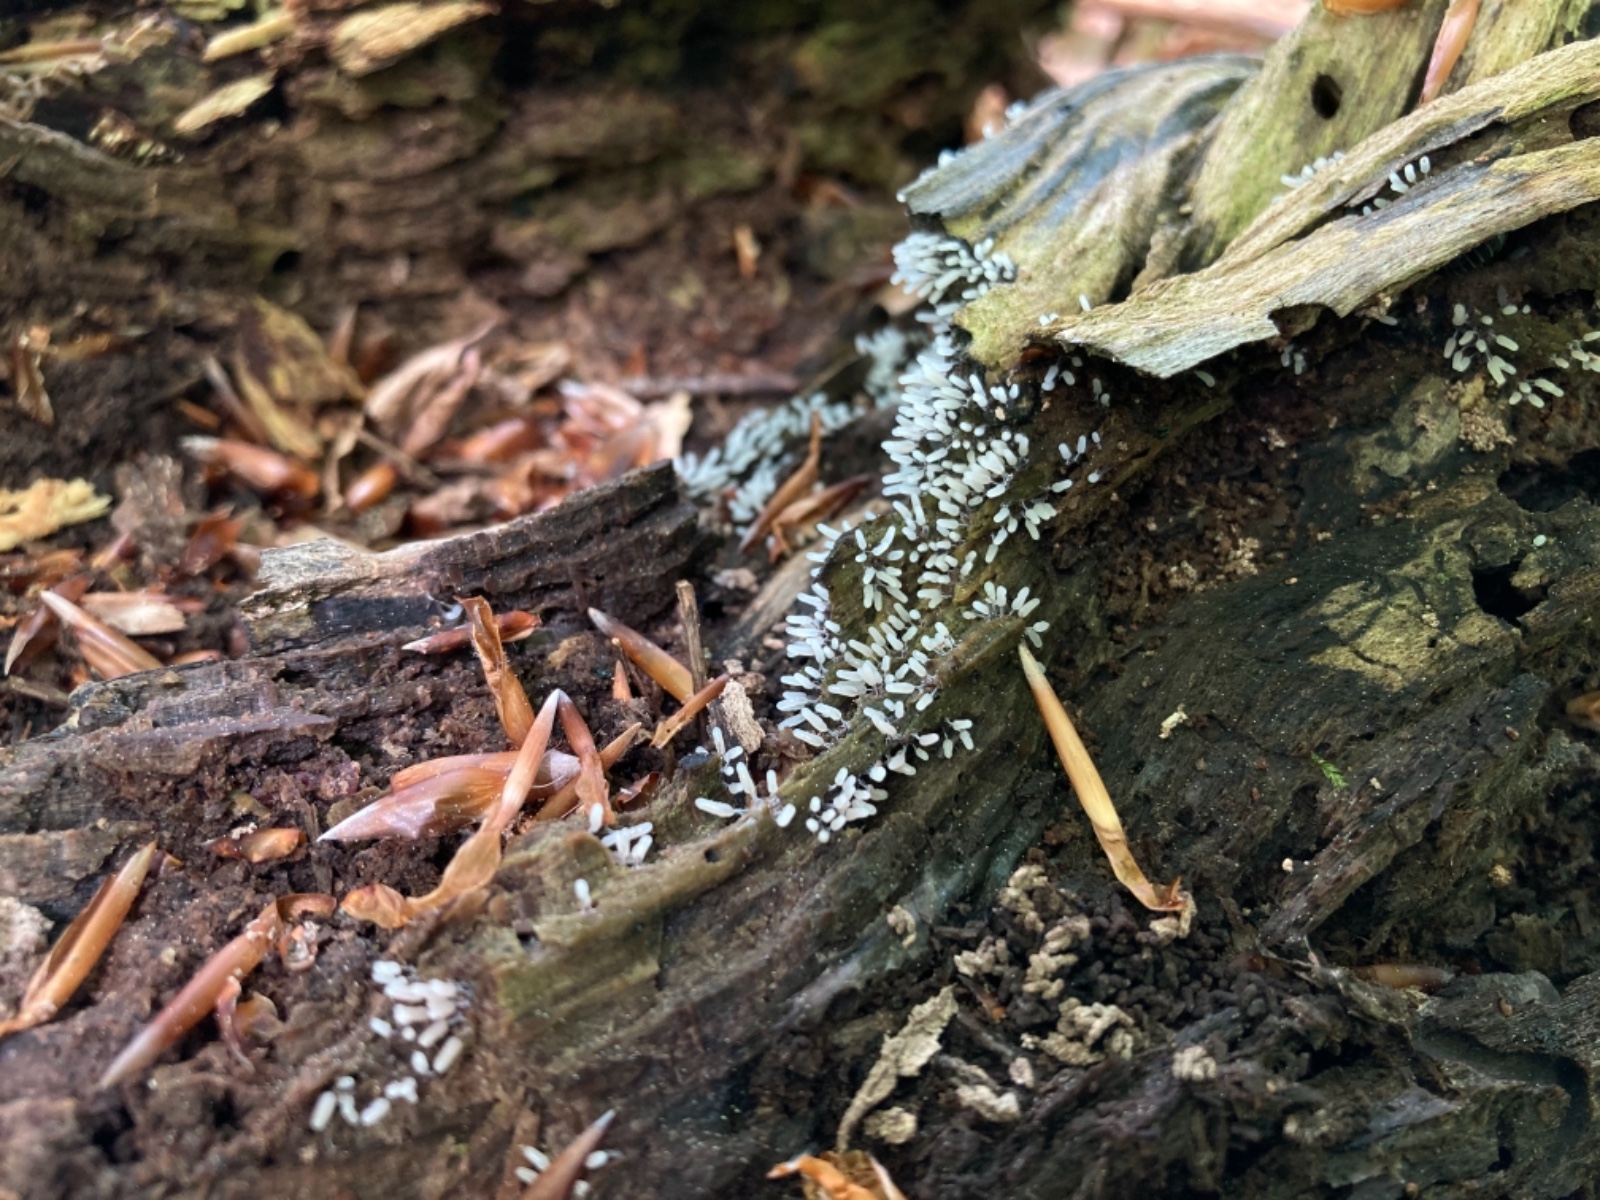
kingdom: Protozoa
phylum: Mycetozoa
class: Protosteliomycetes
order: Ceratiomyxales
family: Ceratiomyxaceae
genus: Ceratiomyxa
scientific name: Ceratiomyxa fruticulosa
